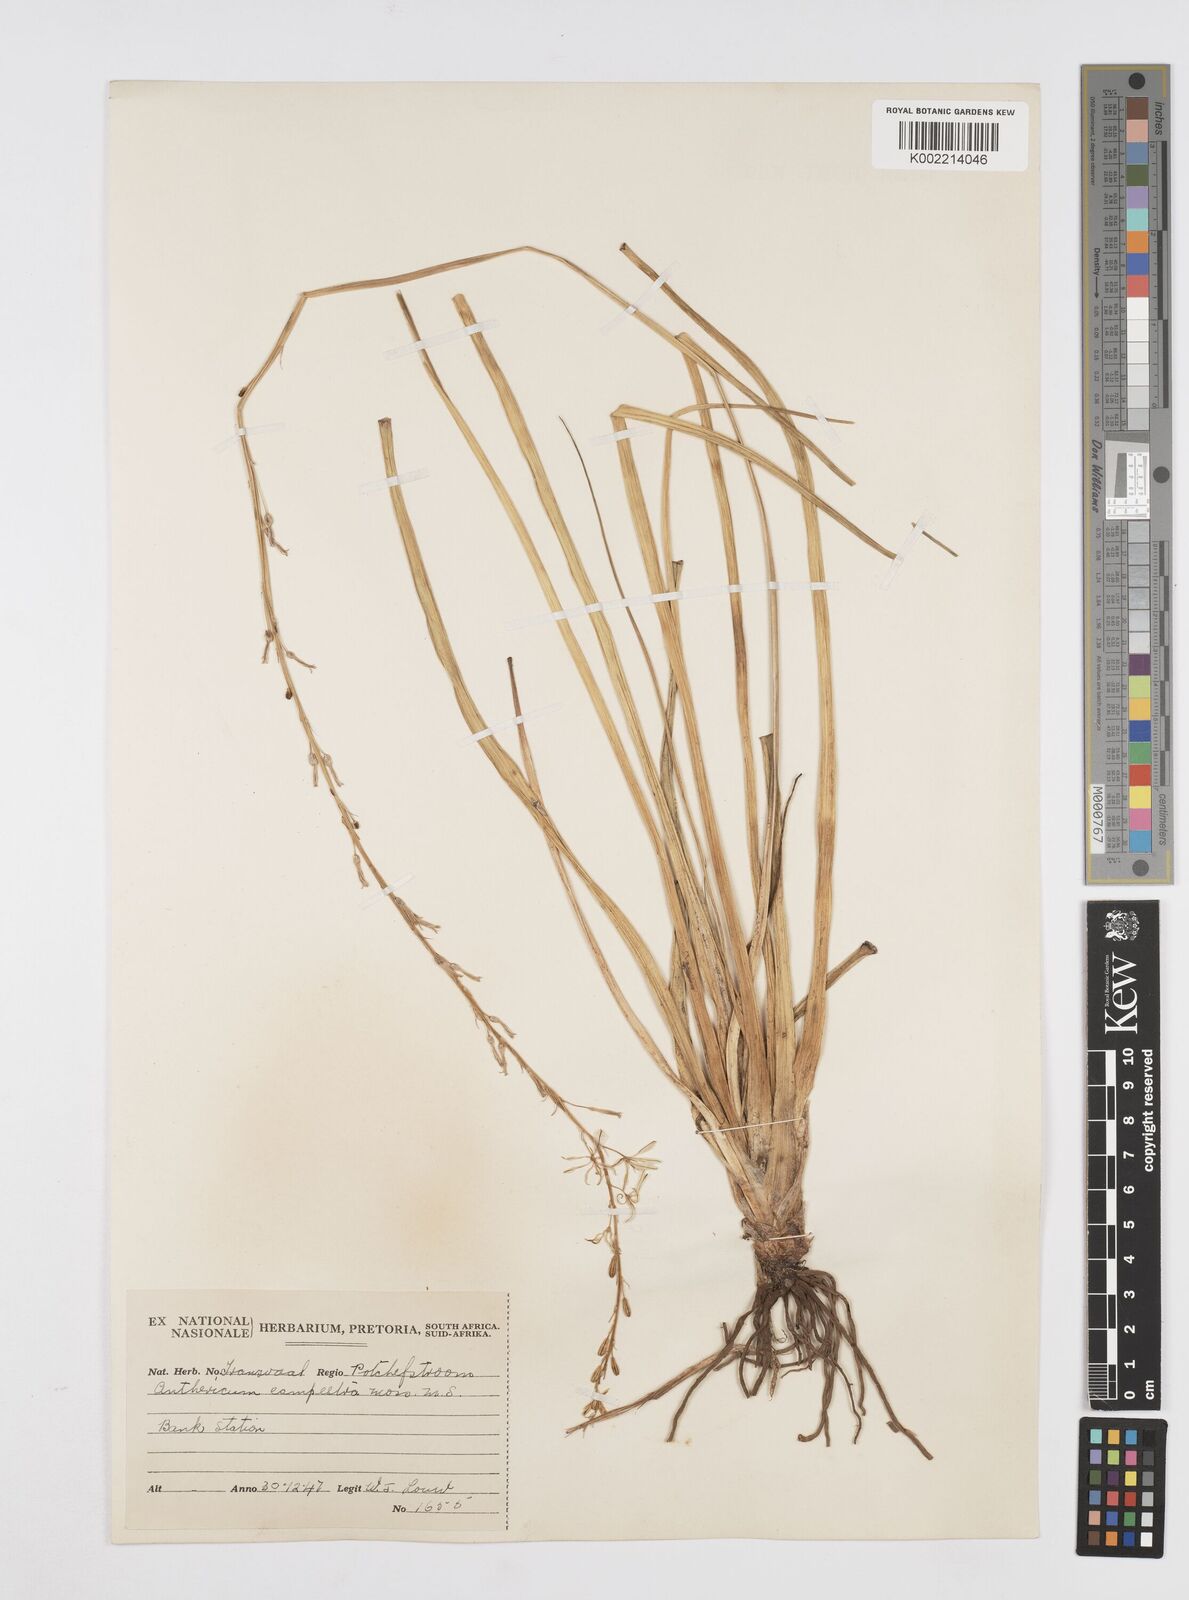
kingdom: Plantae
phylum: Tracheophyta
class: Liliopsida
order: Asparagales
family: Asphodelaceae
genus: Trachyandra
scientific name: Trachyandra
